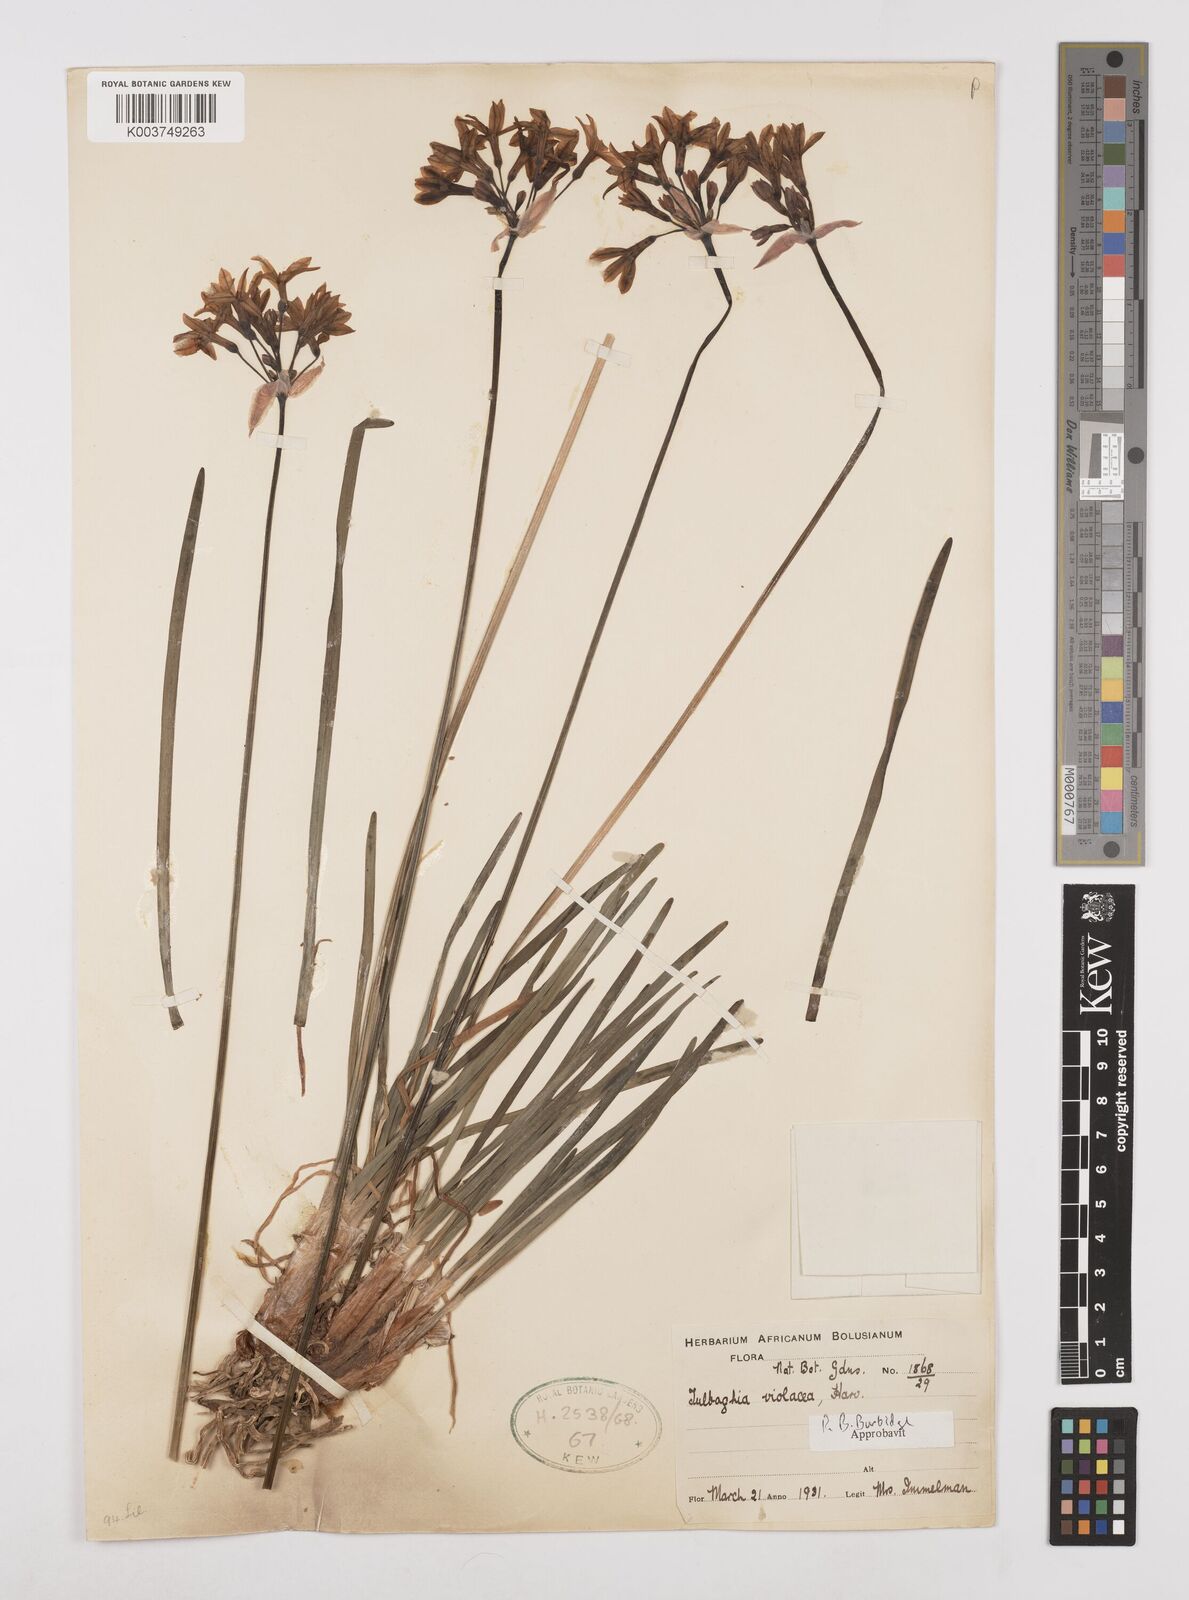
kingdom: Plantae
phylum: Tracheophyta
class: Liliopsida
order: Asparagales
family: Amaryllidaceae
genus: Tulbaghia
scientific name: Tulbaghia violacea
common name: Society garlic
